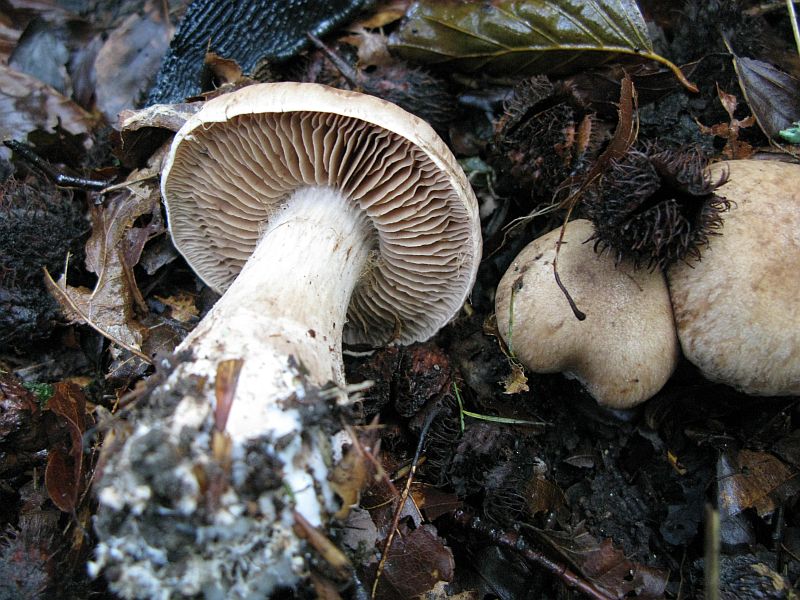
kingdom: Fungi
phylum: Basidiomycota
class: Agaricomycetes
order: Agaricales
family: Cortinariaceae
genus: Cortinarius
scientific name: Cortinarius
